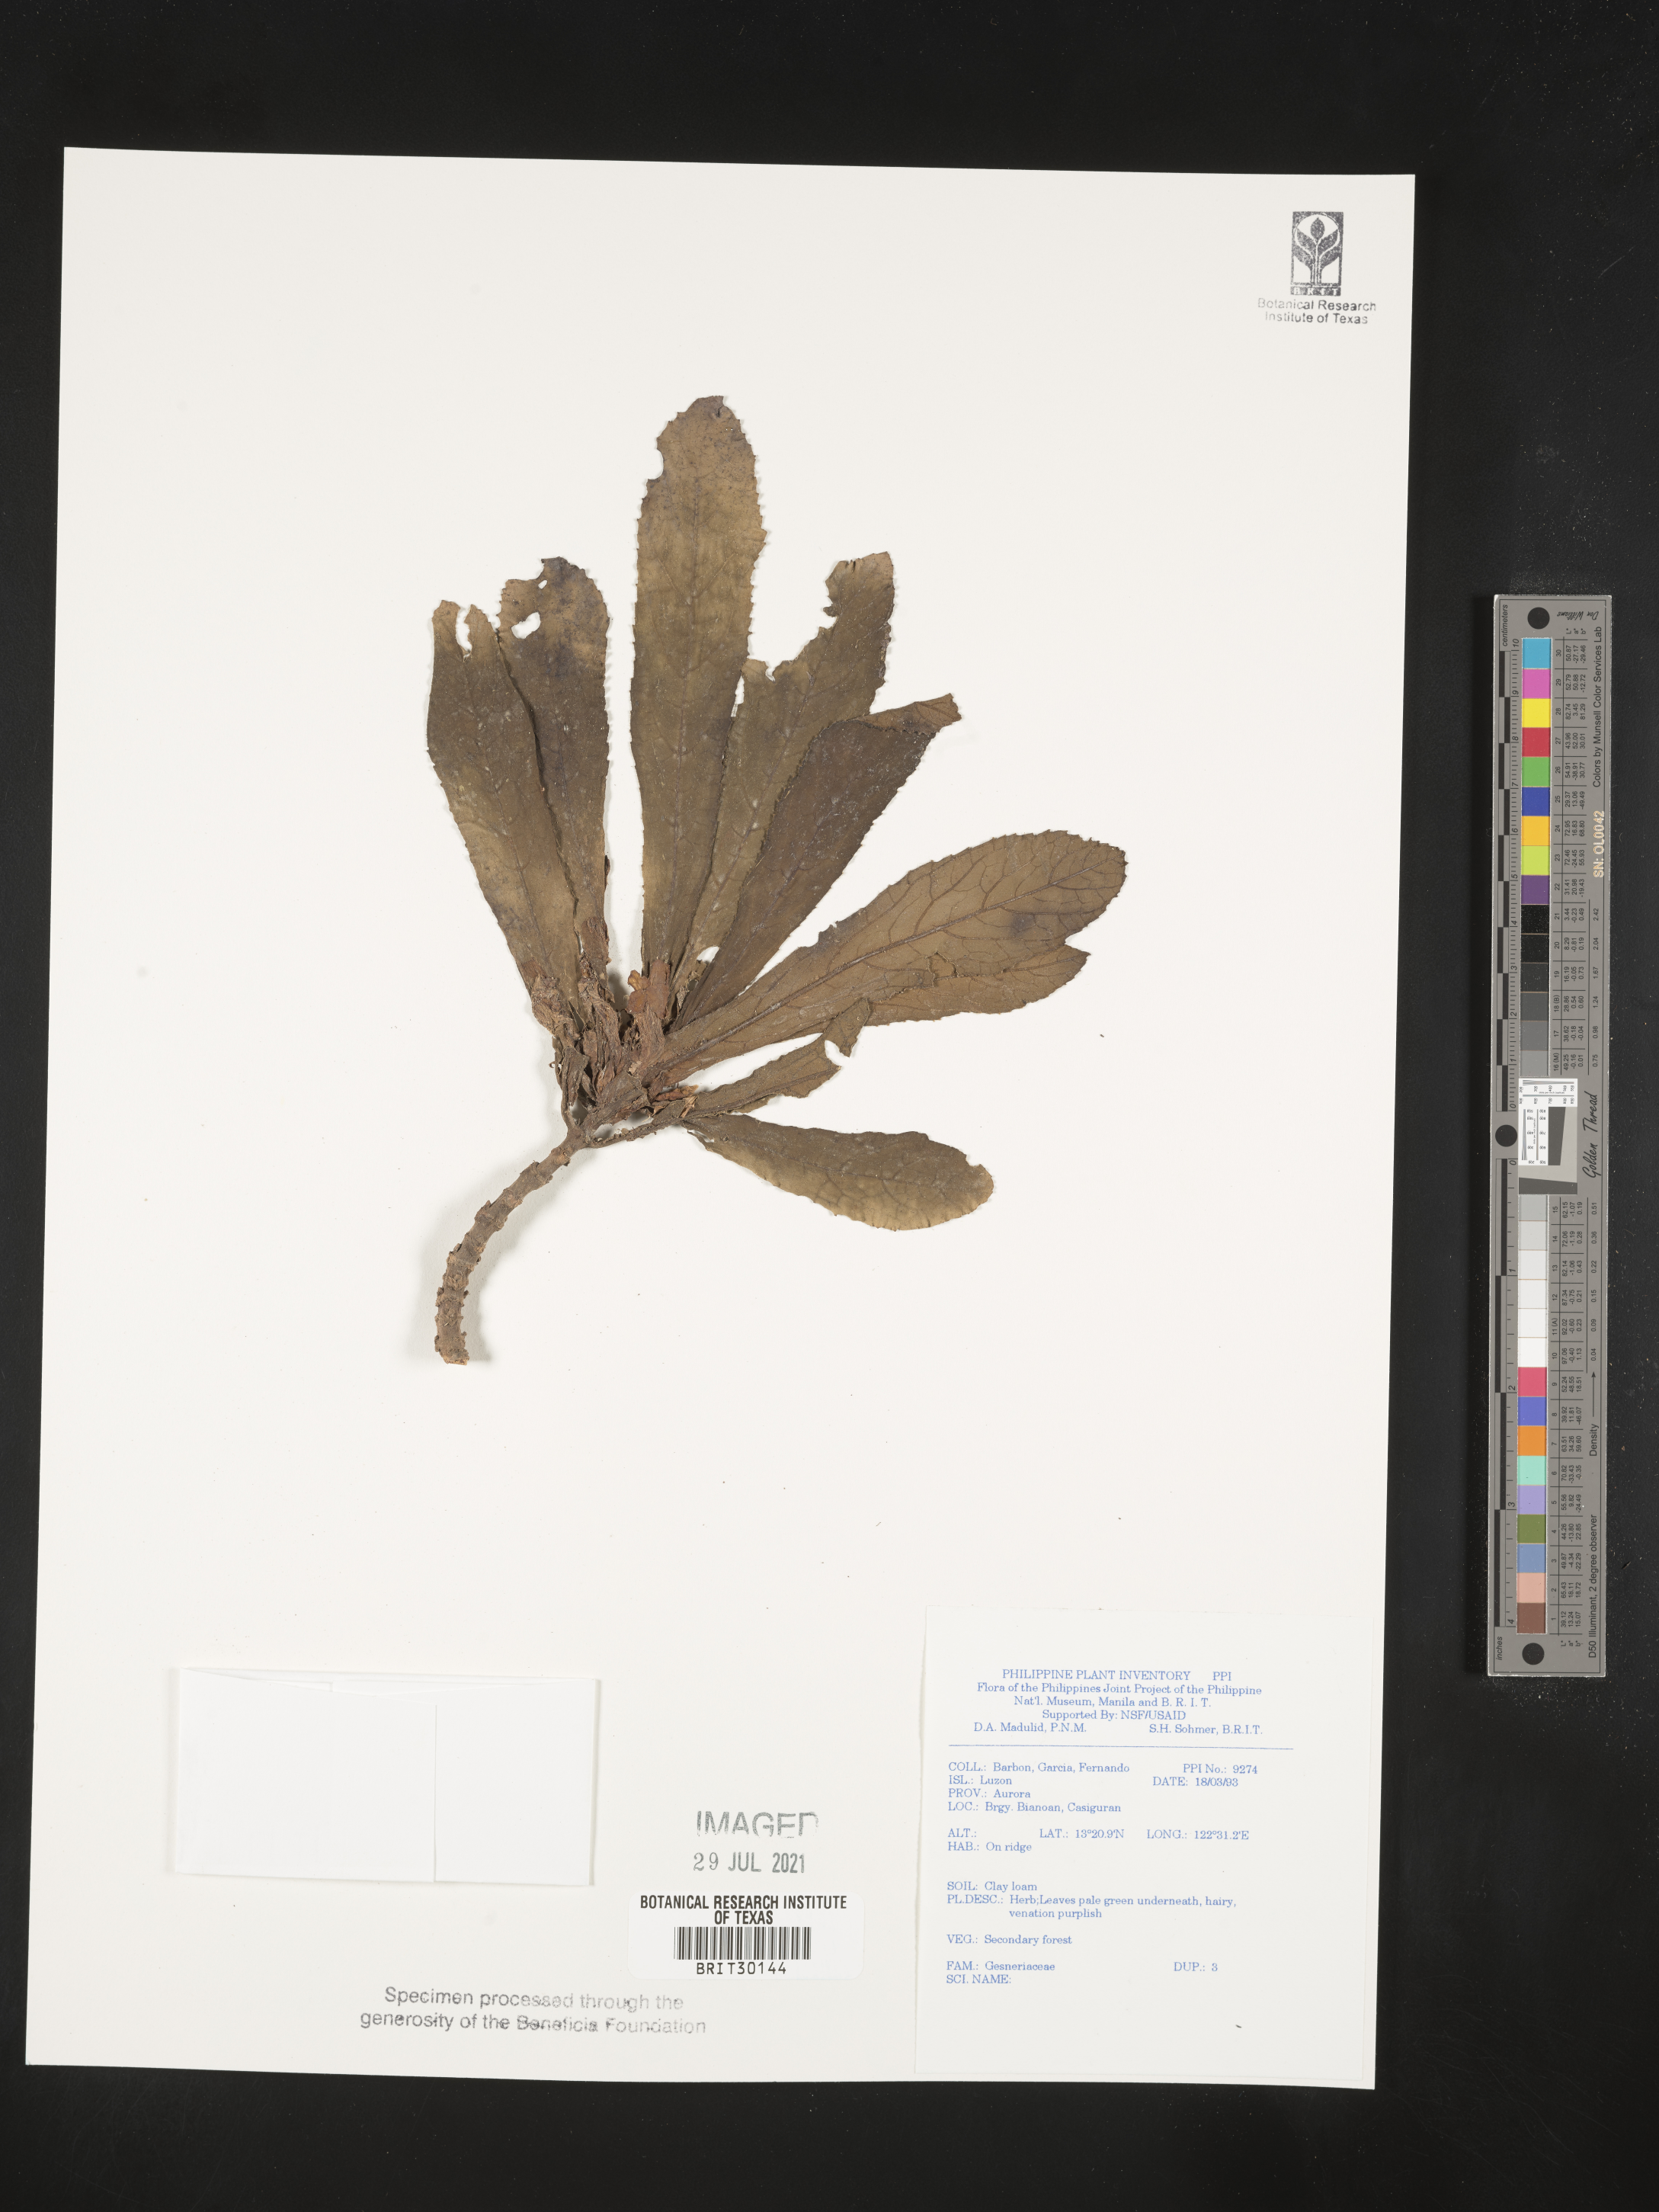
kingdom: Plantae
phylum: Tracheophyta
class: Magnoliopsida
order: Lamiales
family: Gesneriaceae
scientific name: Gesneriaceae
